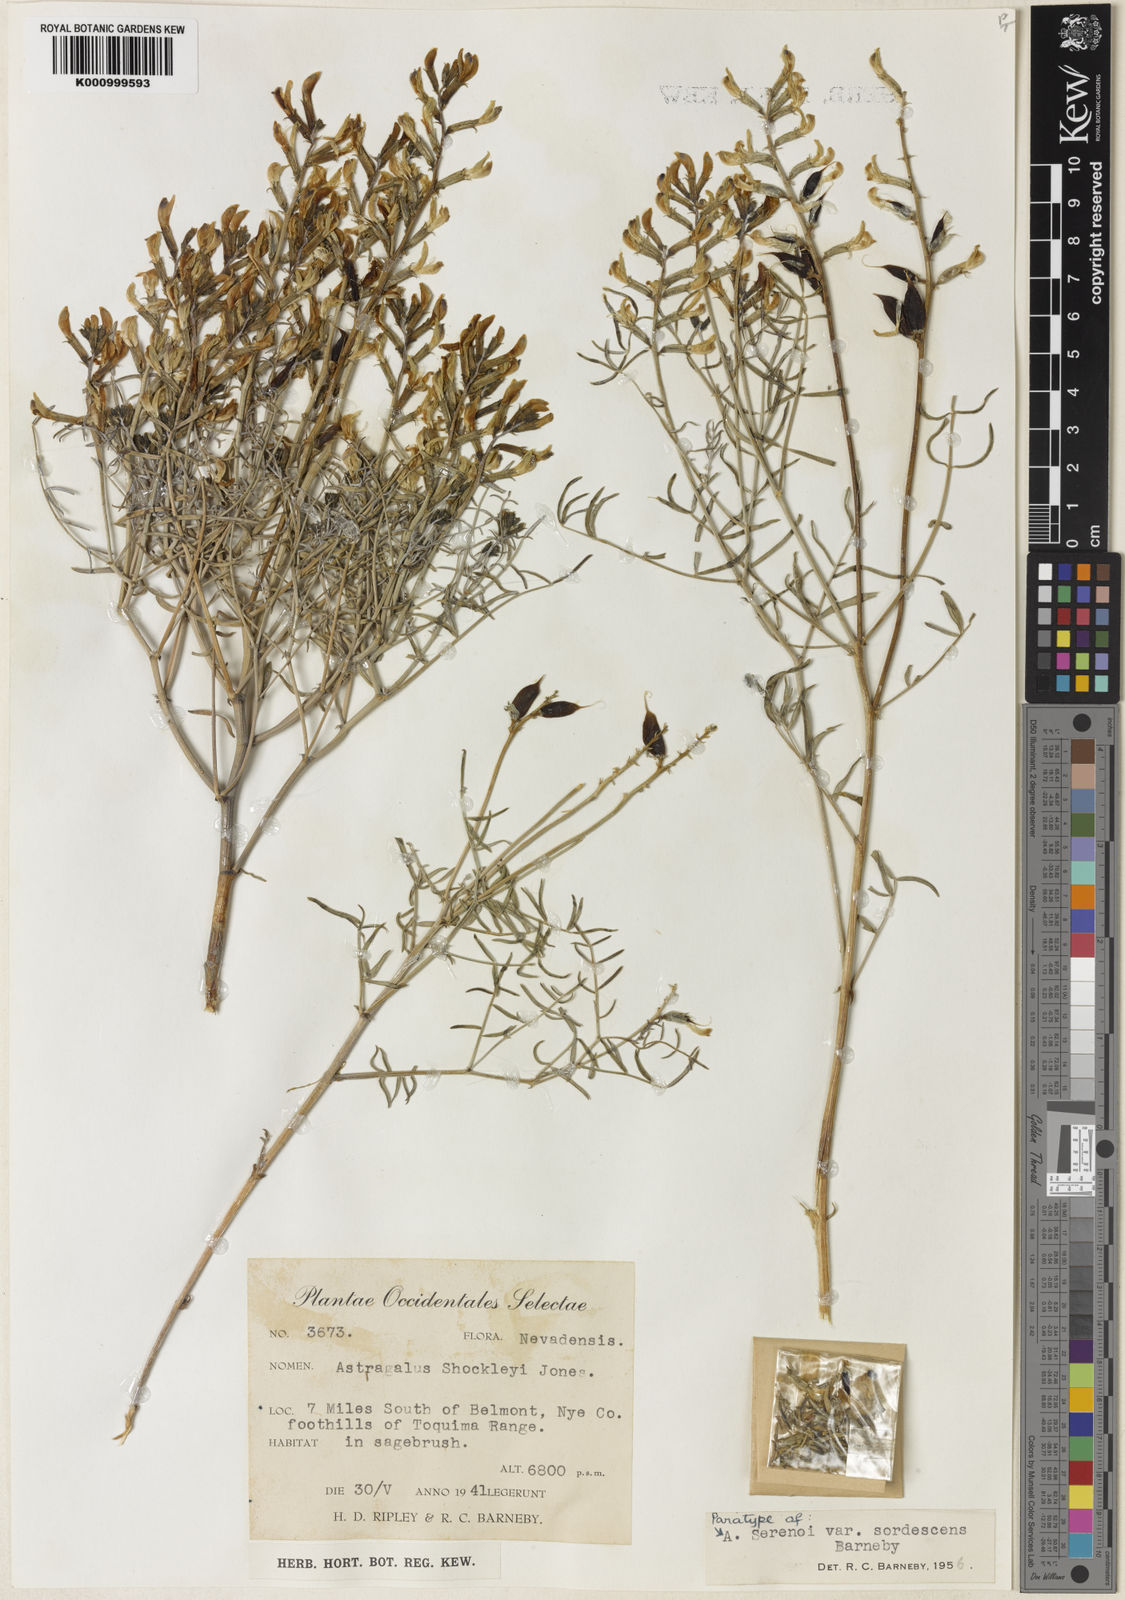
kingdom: Plantae
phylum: Tracheophyta
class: Magnoliopsida
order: Fabales
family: Fabaceae
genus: Astragalus
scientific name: Astragalus serenoi
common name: Naked milk-vetch
